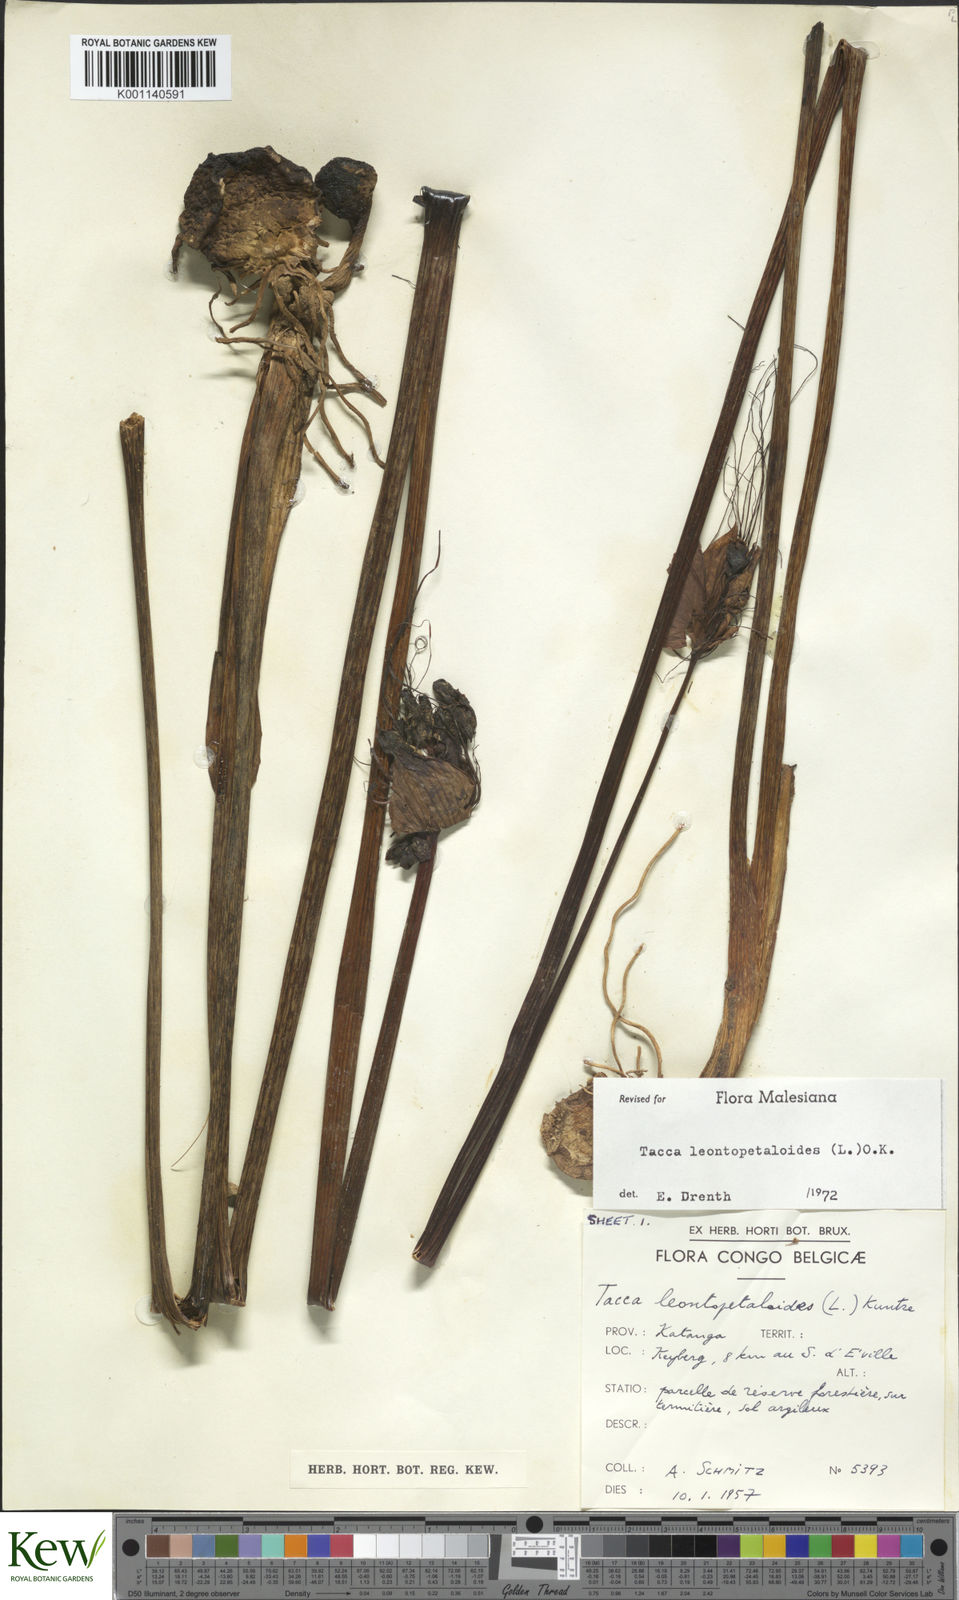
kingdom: Plantae
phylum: Tracheophyta
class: Liliopsida
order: Dioscoreales
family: Dioscoreaceae
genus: Tacca
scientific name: Tacca leontopetaloides
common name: Arrowroot
